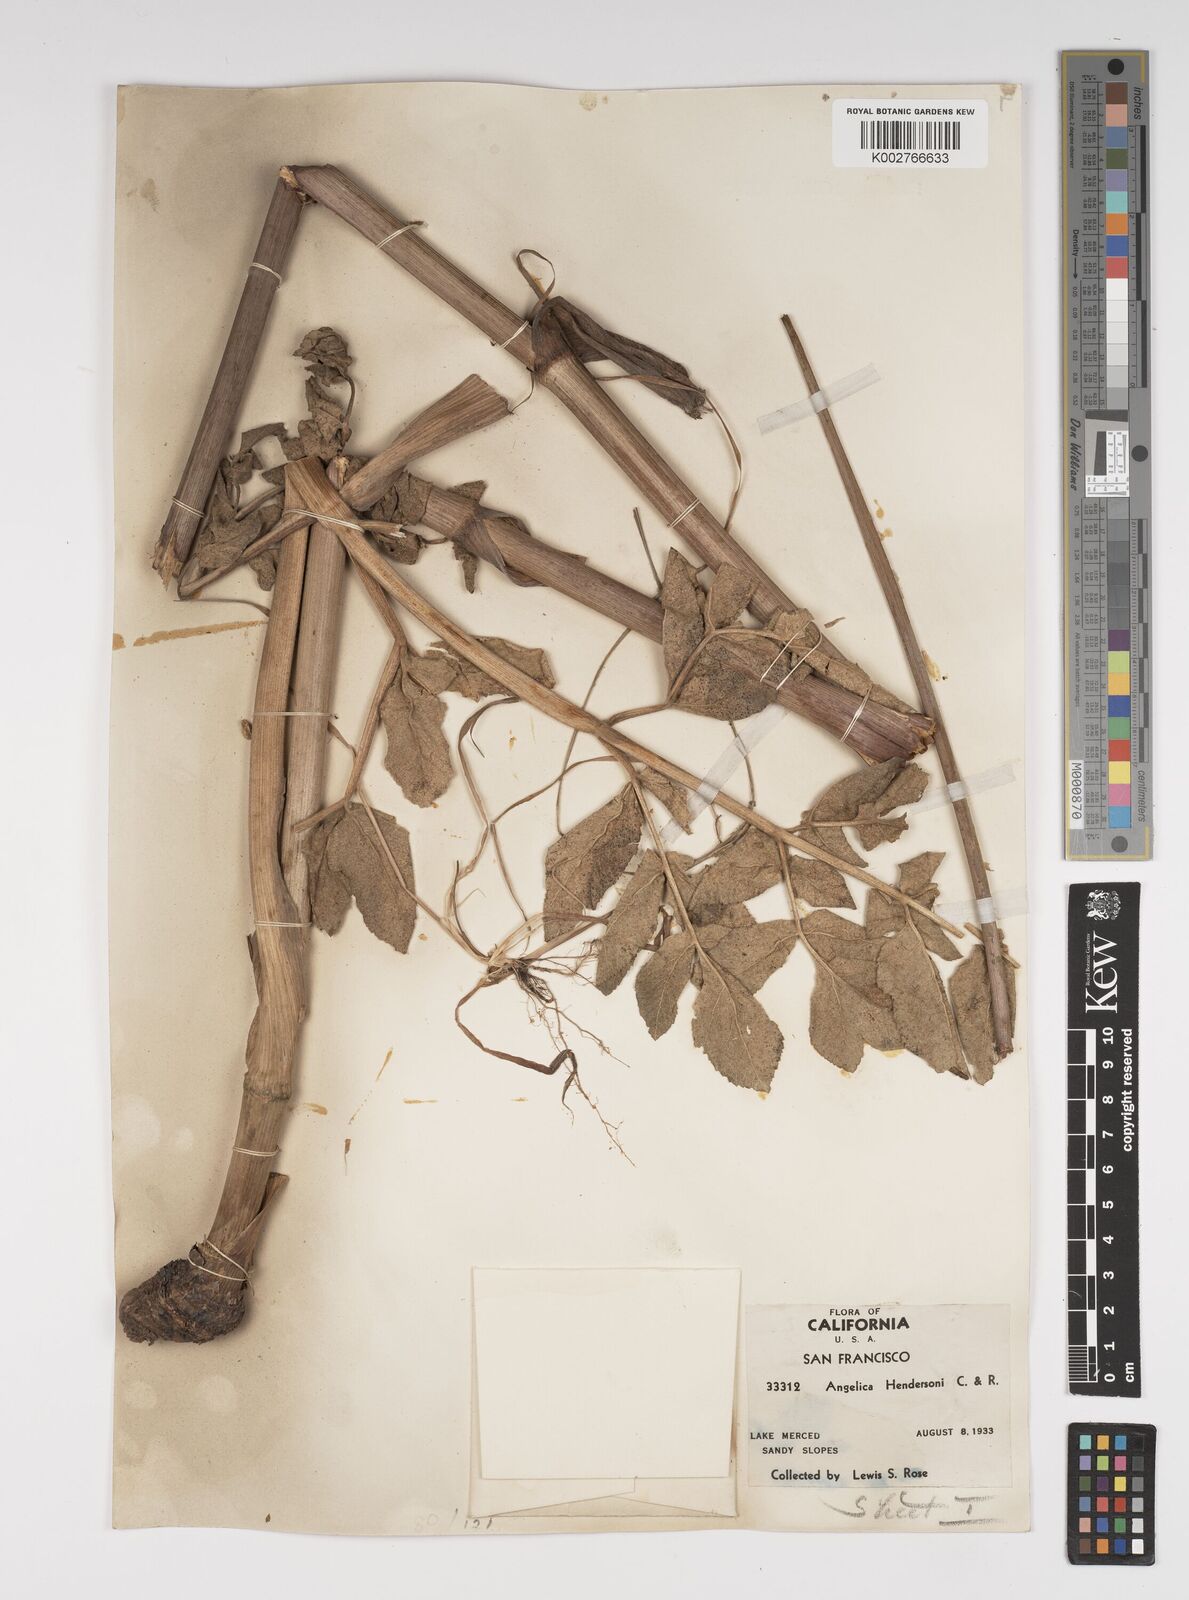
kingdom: Plantae
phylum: Tracheophyta
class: Magnoliopsida
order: Apiales
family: Apiaceae
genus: Angelica
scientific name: Angelica hendersonii
